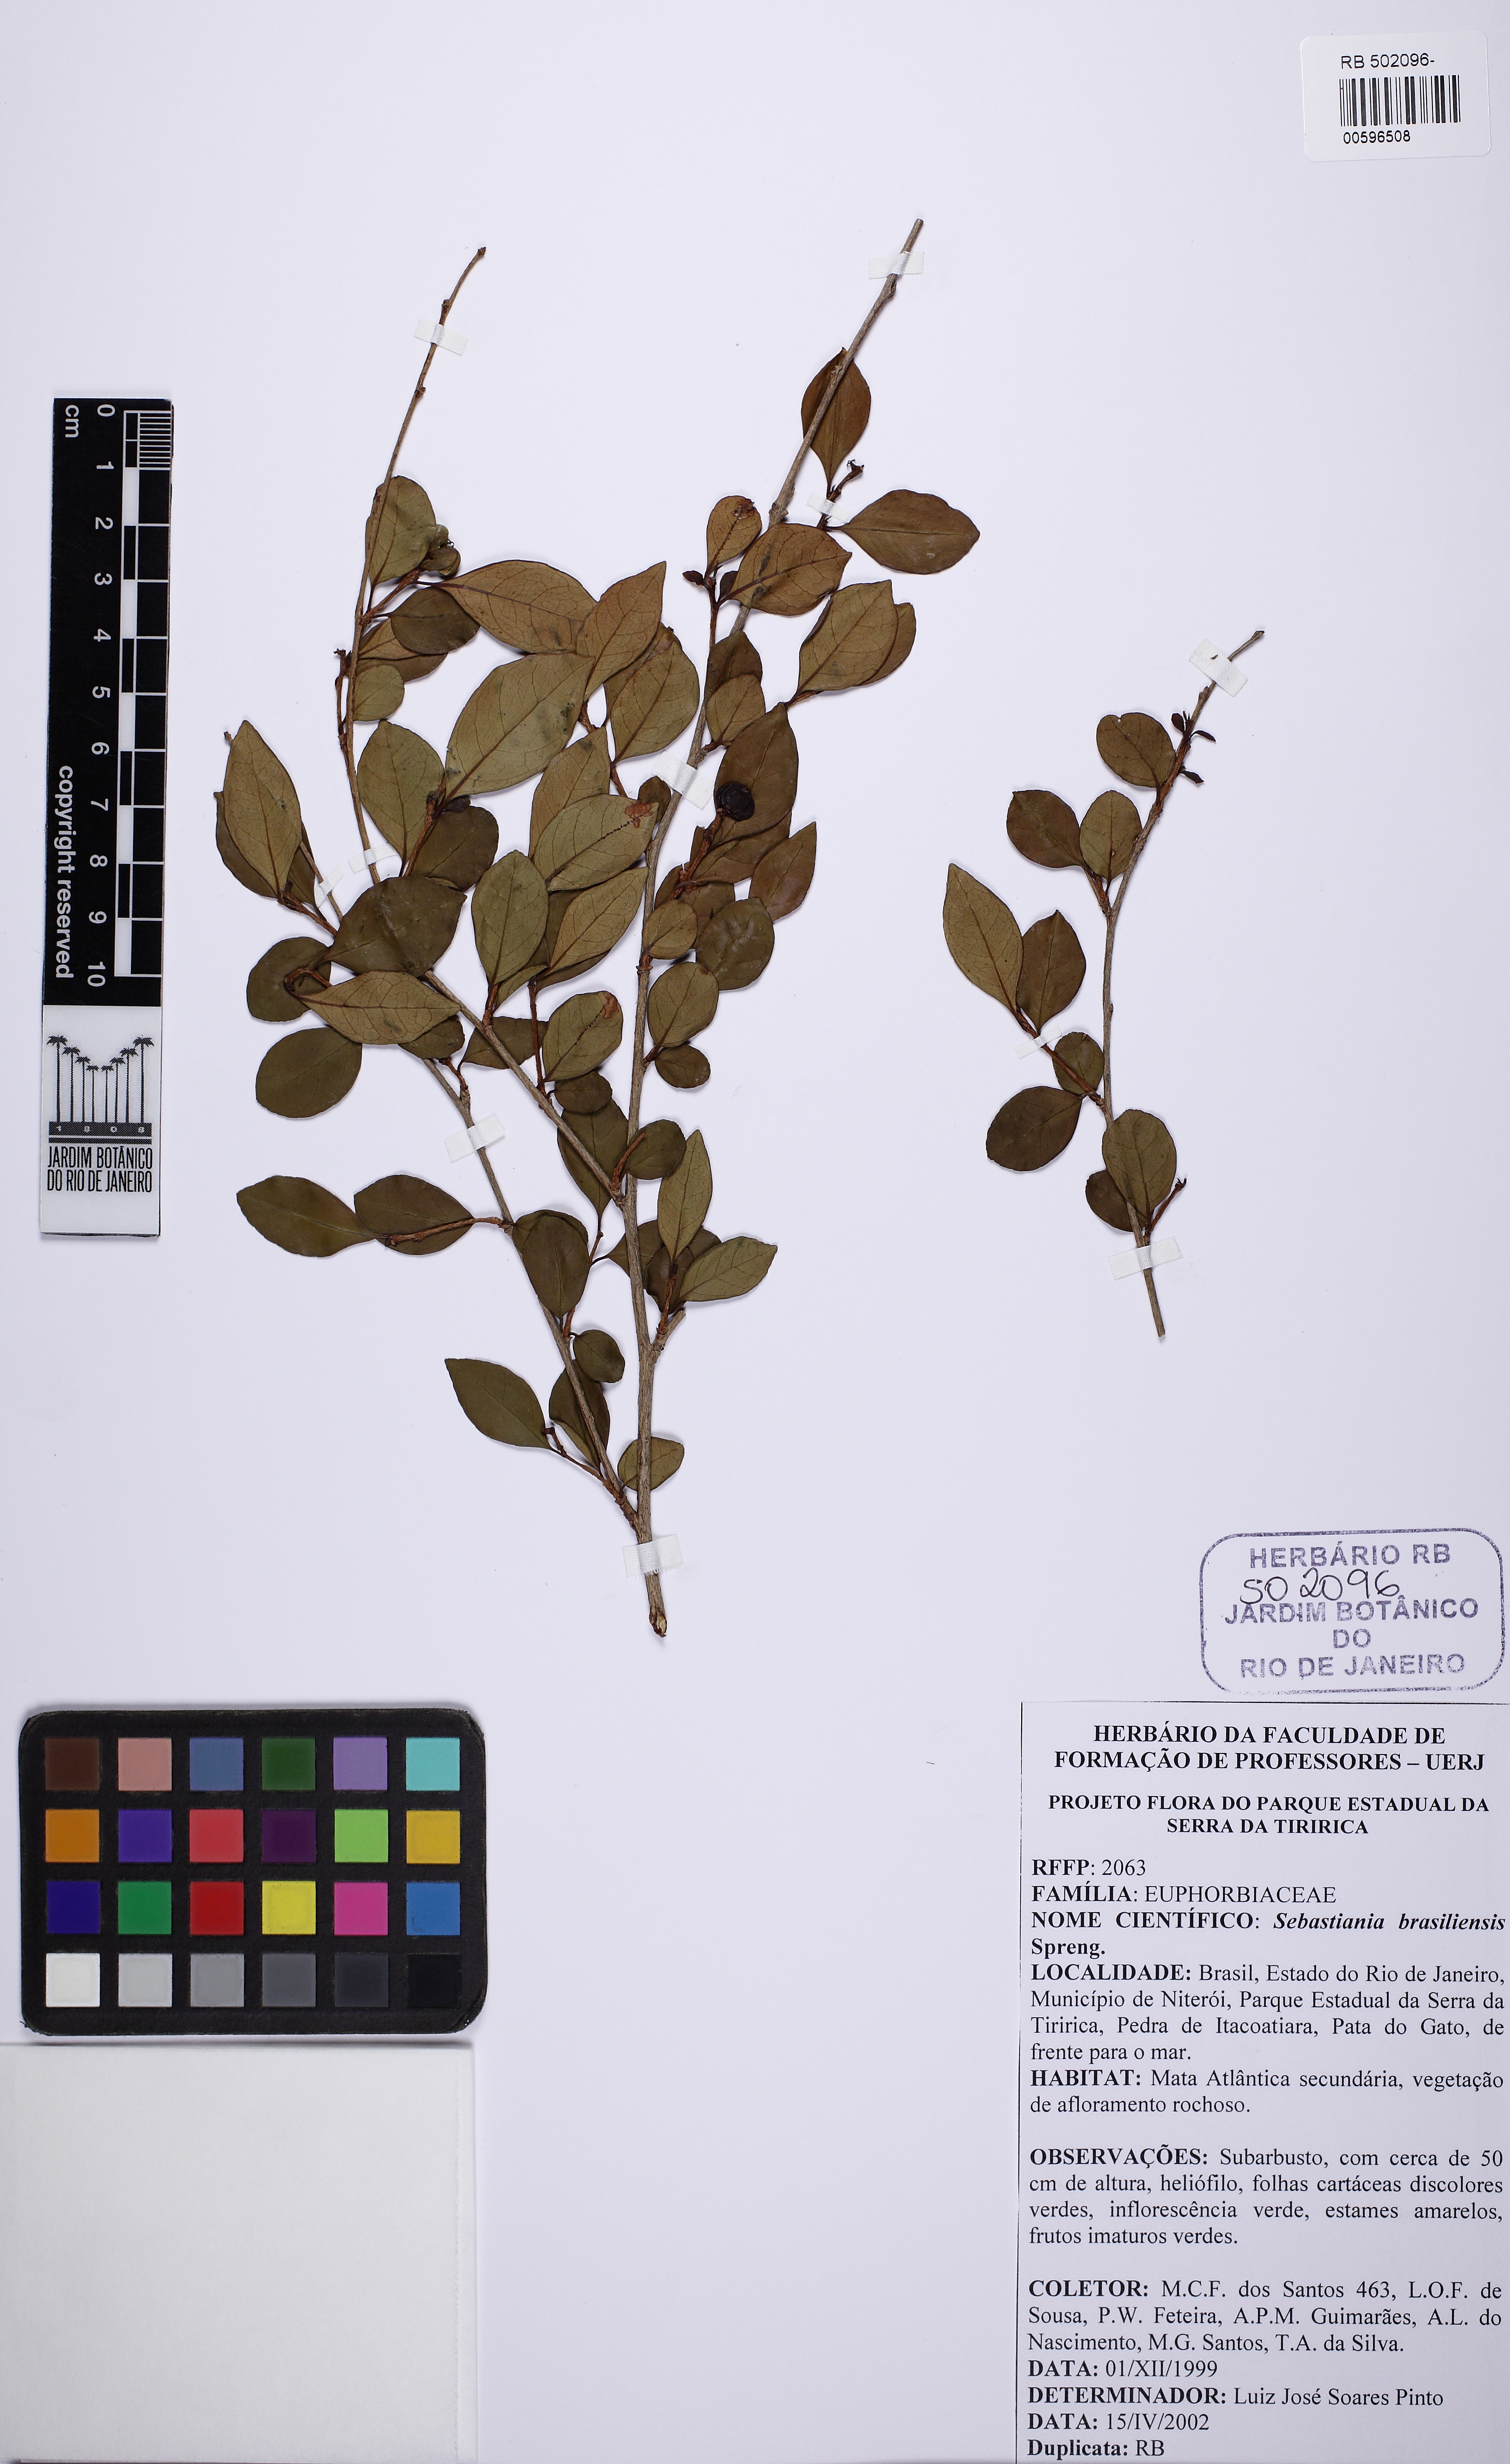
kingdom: Plantae
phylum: Tracheophyta
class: Magnoliopsida
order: Malpighiales
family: Euphorbiaceae
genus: Sebastiania
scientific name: Sebastiania brasiliensis
